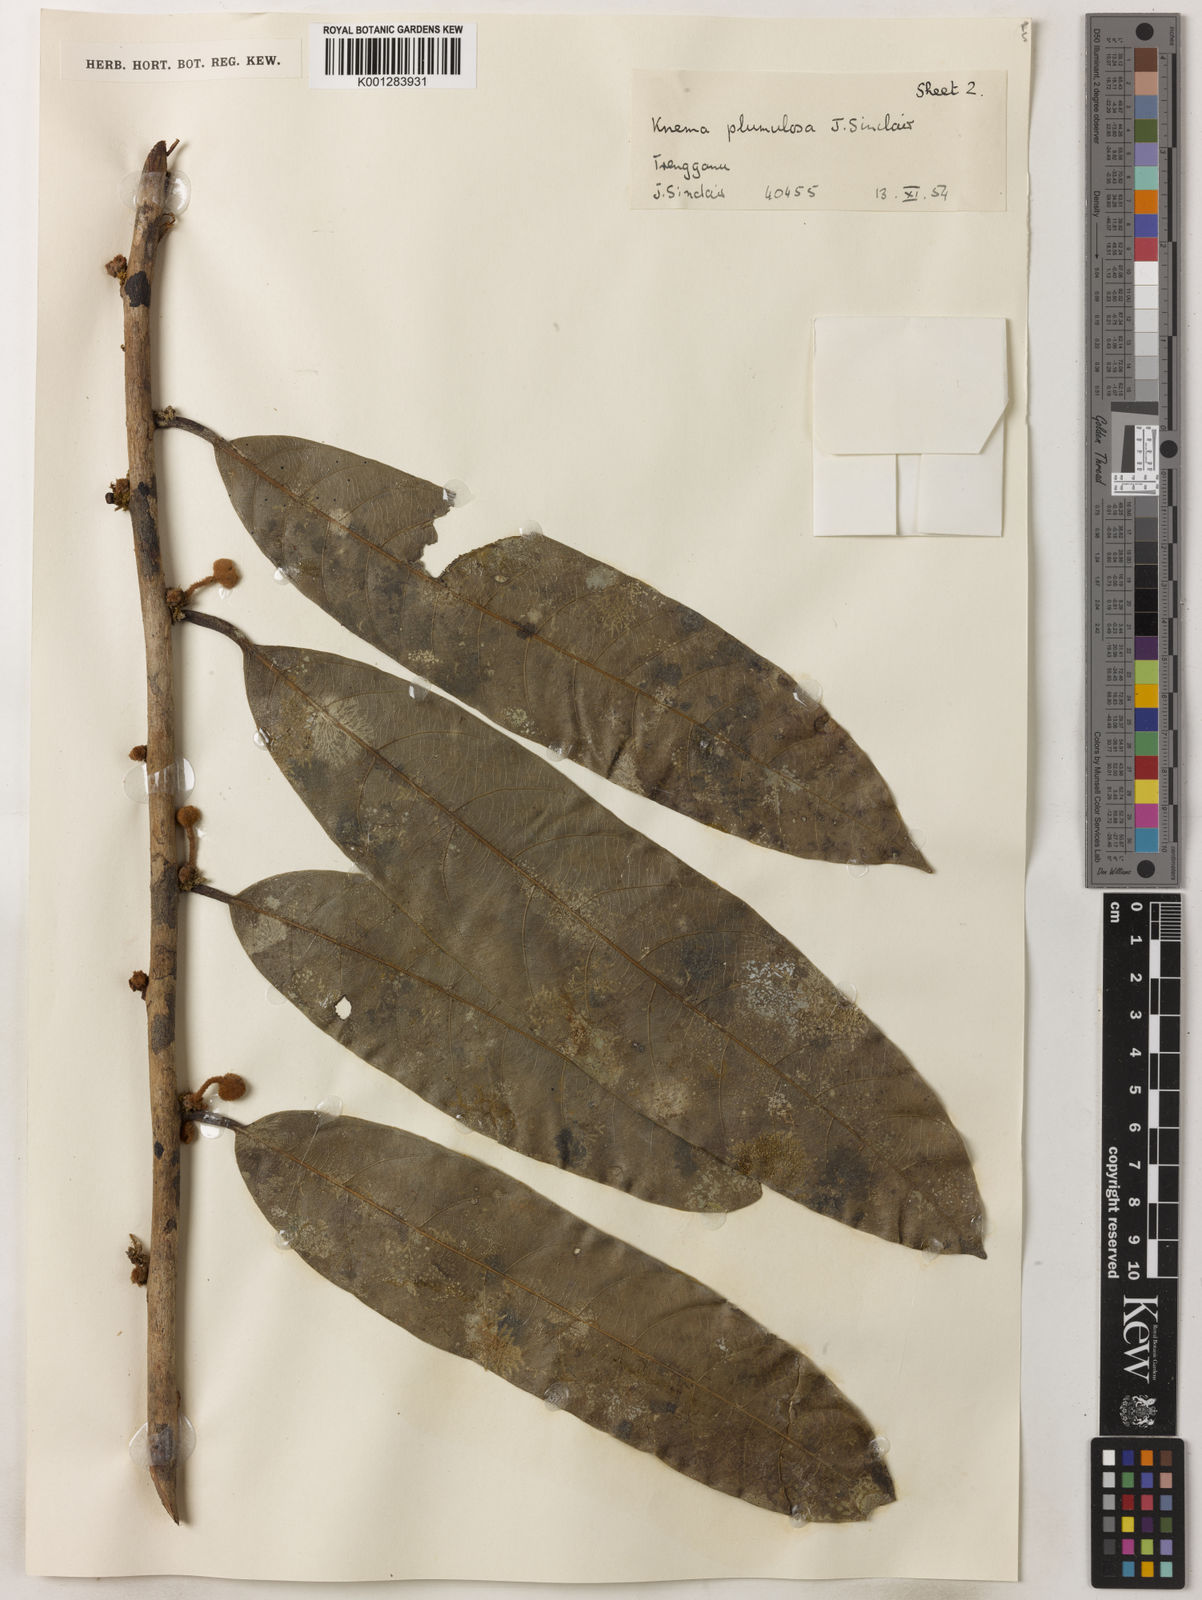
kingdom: Plantae
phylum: Tracheophyta
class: Magnoliopsida
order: Magnoliales
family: Myristicaceae
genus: Knema
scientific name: Knema plumulosa
